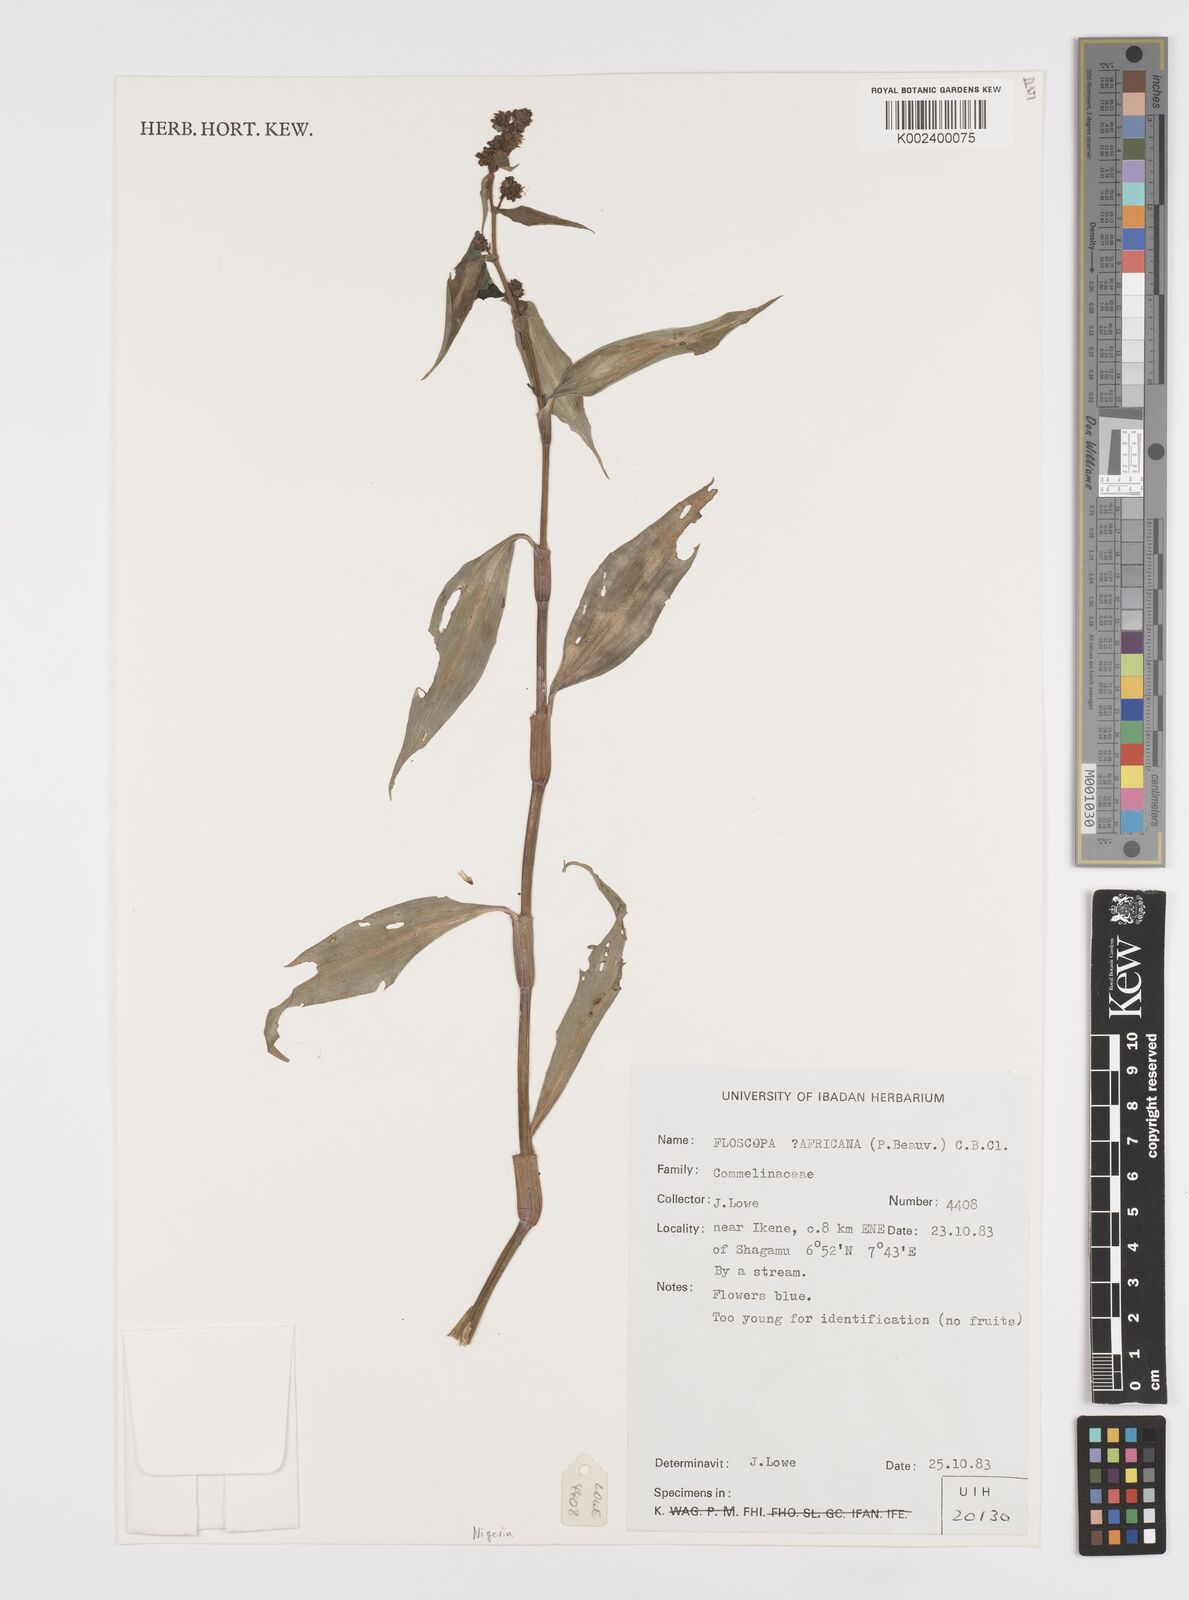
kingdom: Plantae
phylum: Tracheophyta
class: Liliopsida
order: Commelinales
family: Commelinaceae
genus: Floscopa
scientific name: Floscopa africana
